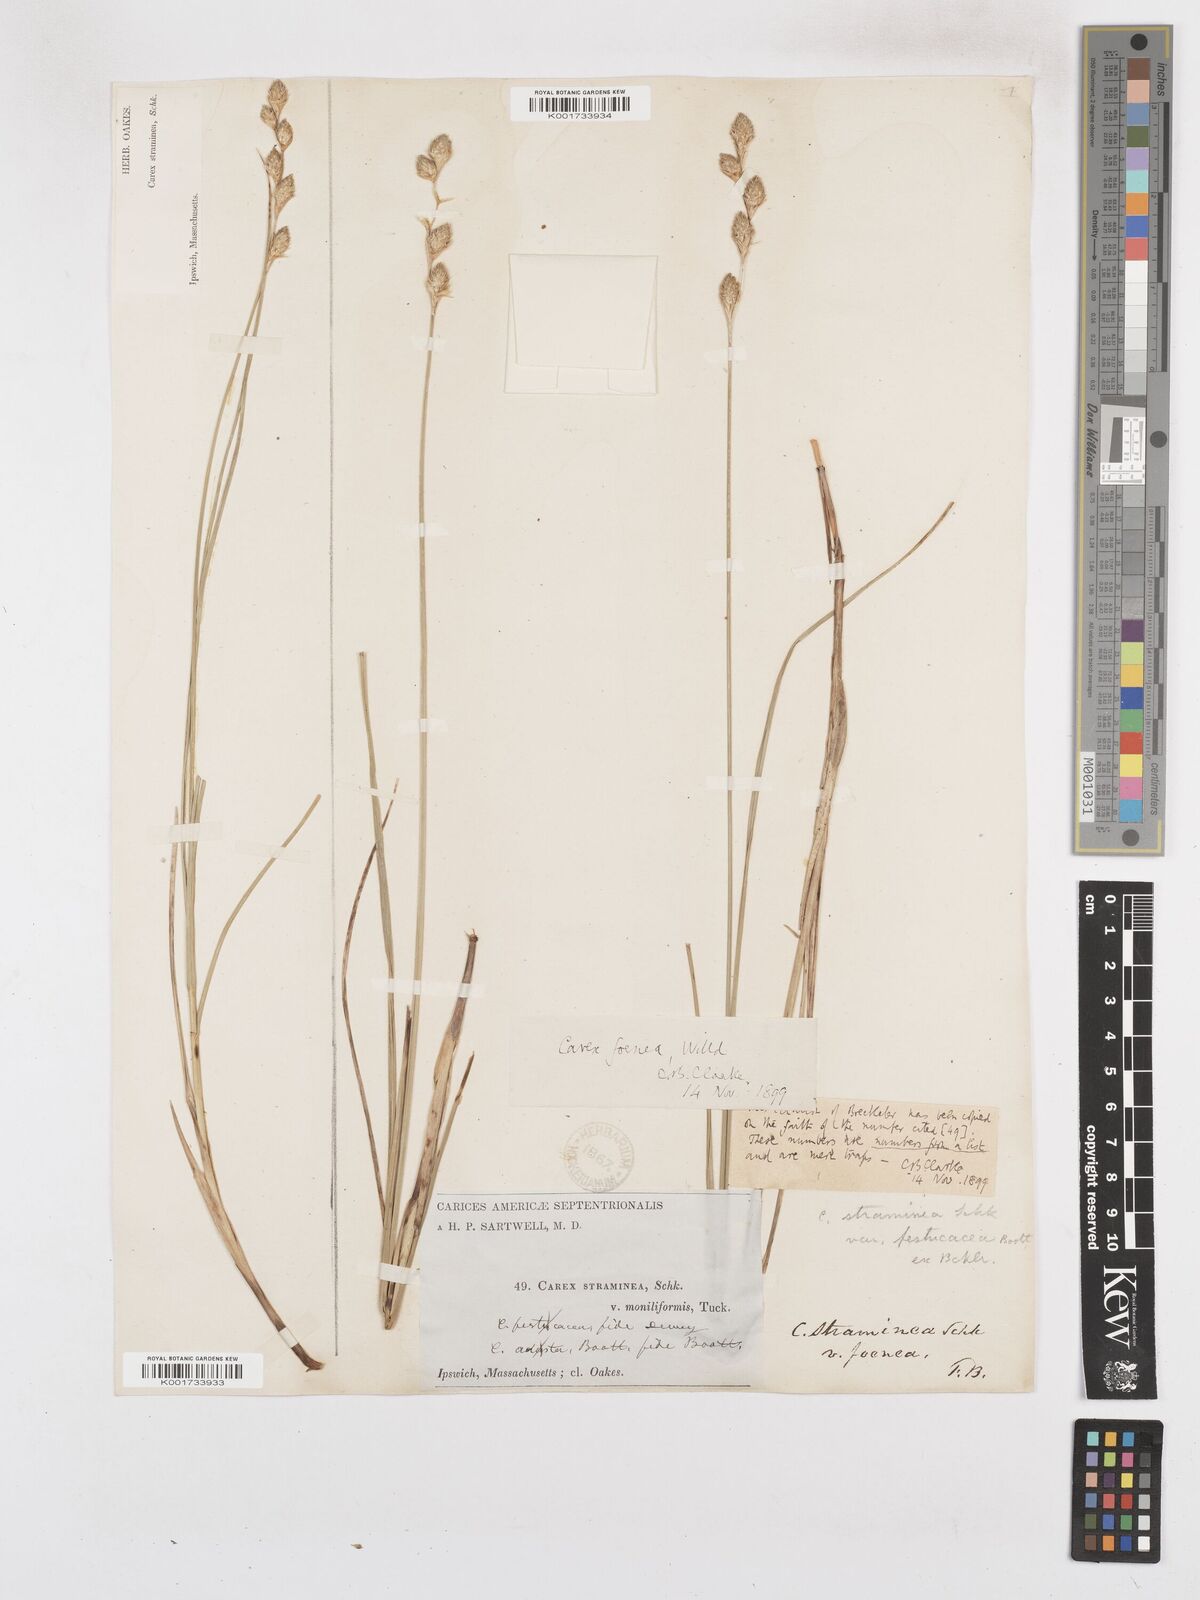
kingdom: Plantae
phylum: Tracheophyta
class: Liliopsida
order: Poales
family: Cyperaceae
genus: Carex
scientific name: Carex argyrantha
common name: Silvery-flowered sedge
